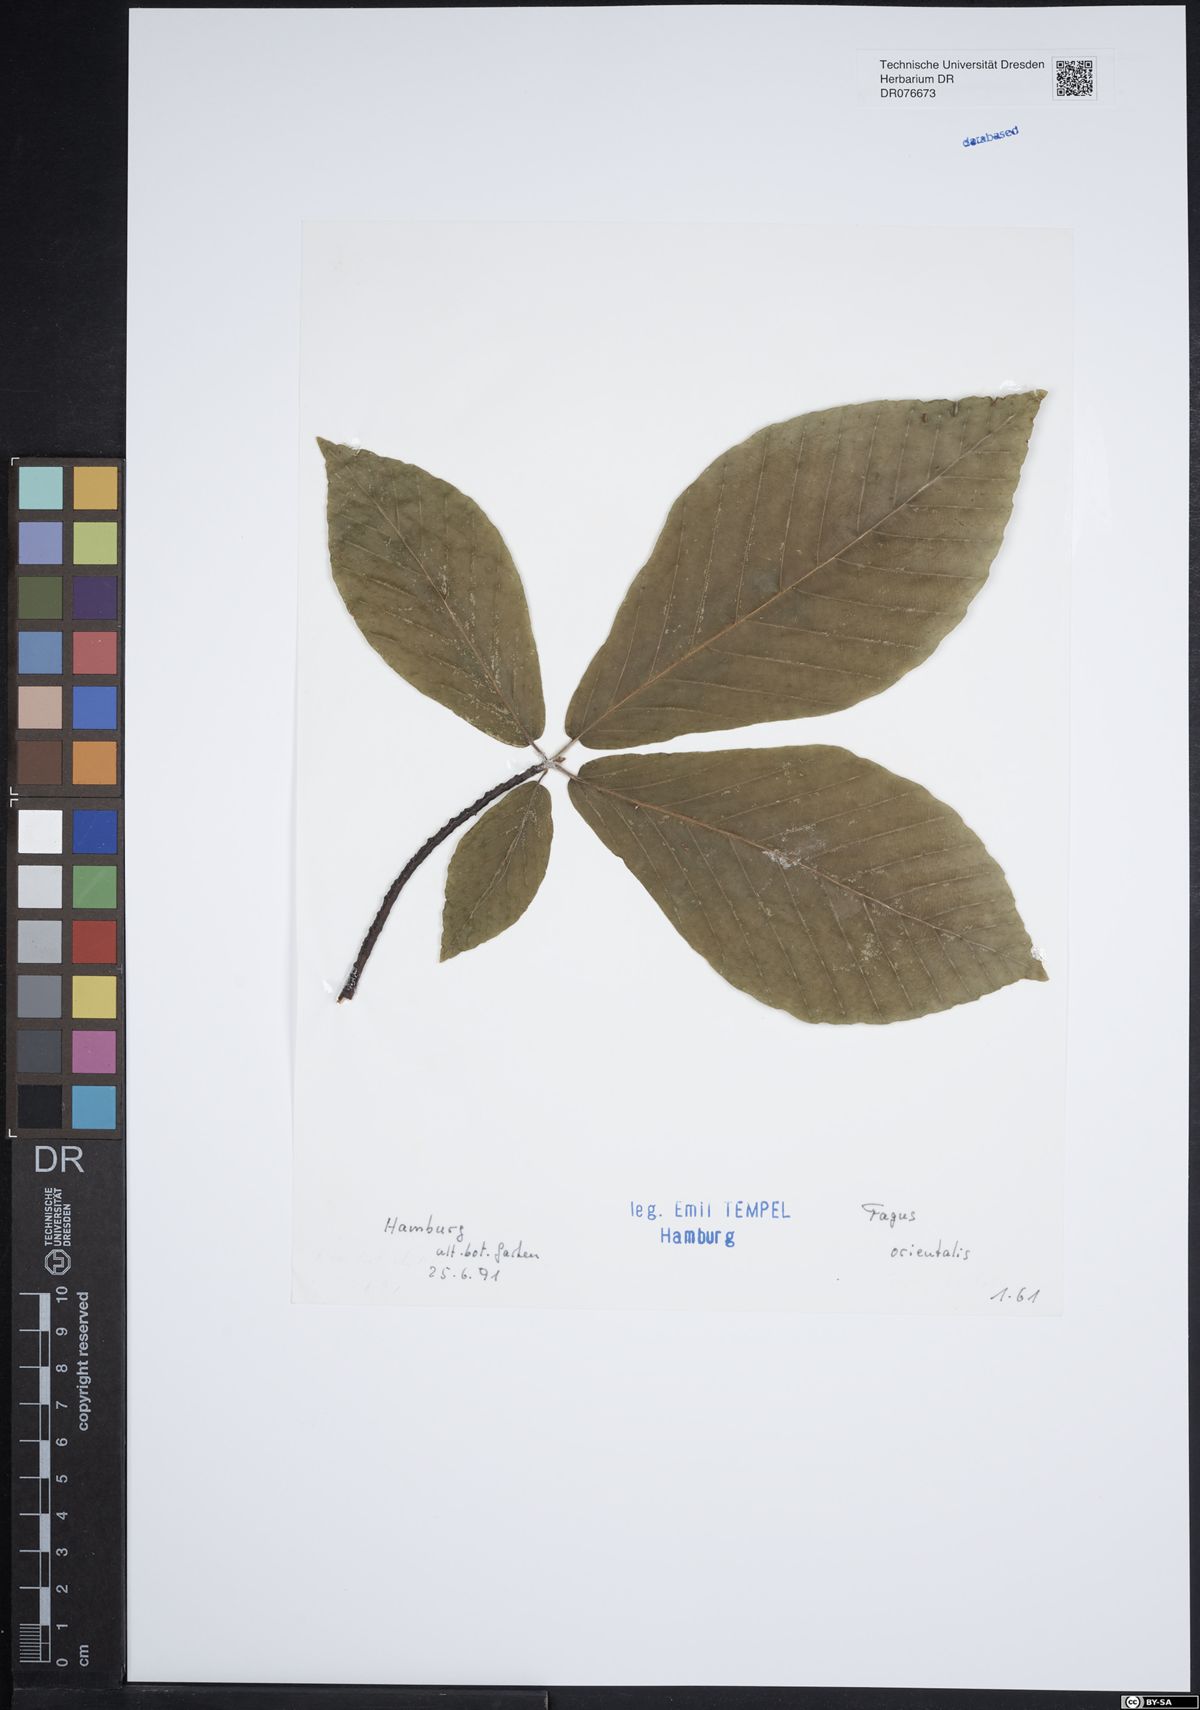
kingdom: Plantae
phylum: Tracheophyta
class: Magnoliopsida
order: Fagales
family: Fagaceae
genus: Fagus
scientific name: Fagus orientalis
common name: Oriental beech
